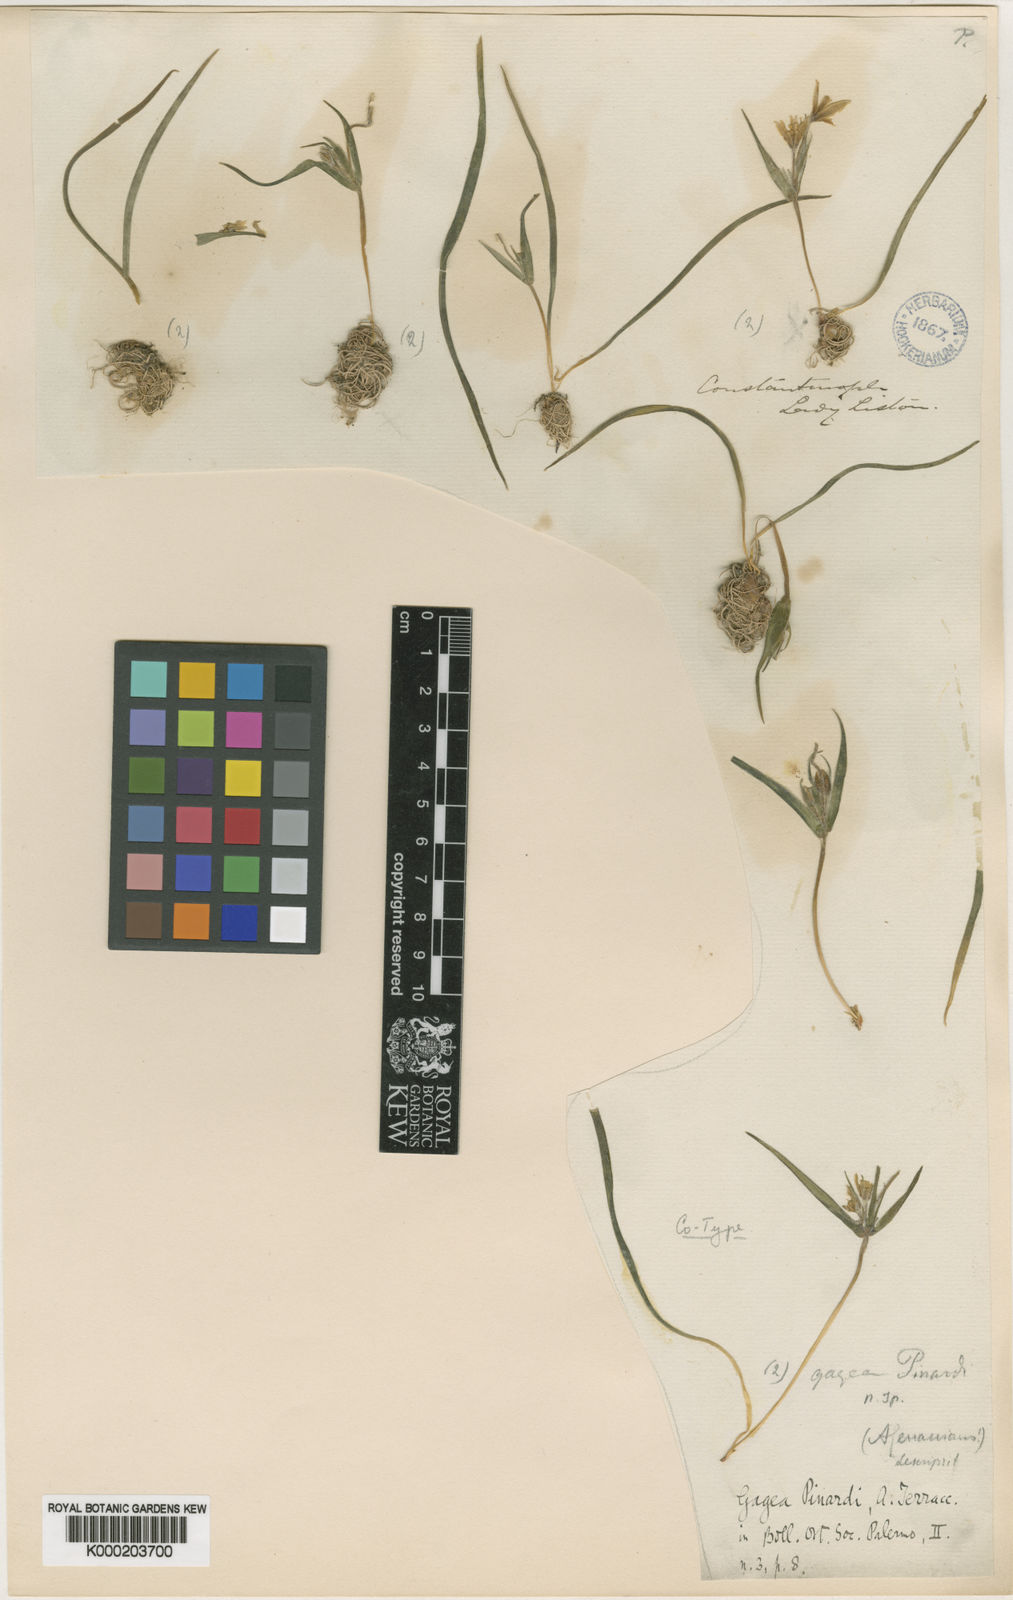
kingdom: Plantae
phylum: Tracheophyta
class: Liliopsida
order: Liliales
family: Liliaceae
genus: Gagea
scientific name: Gagea dubia
